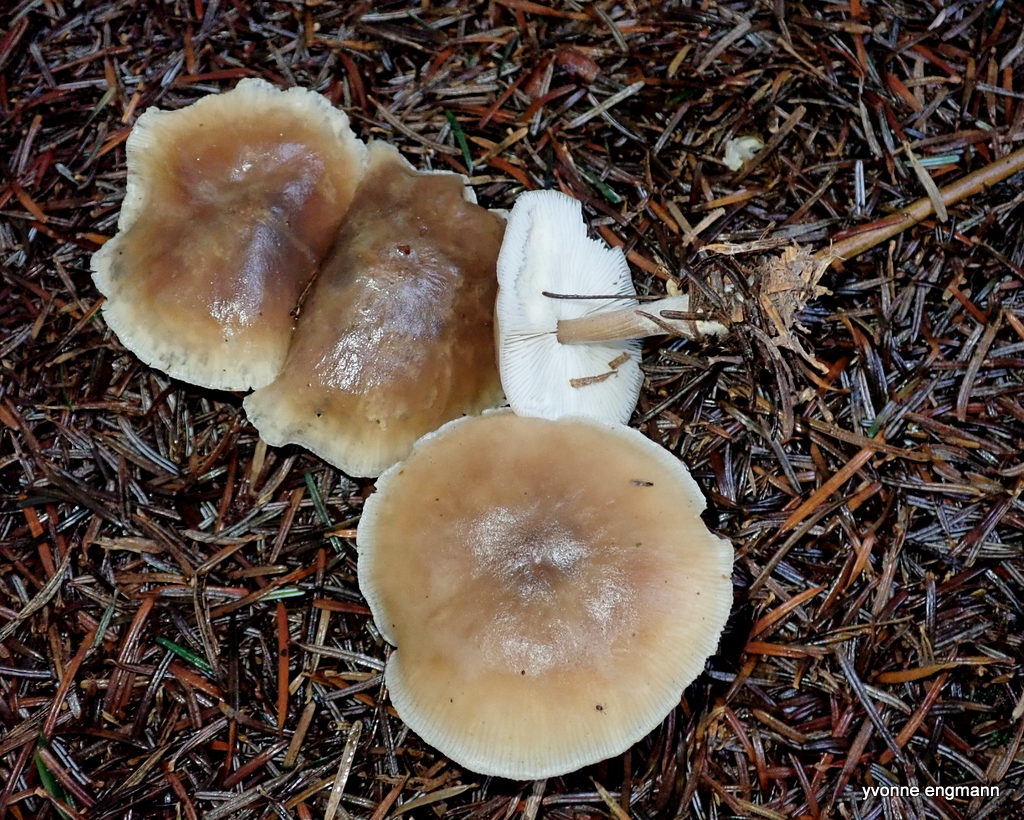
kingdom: Fungi
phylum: Basidiomycota
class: Agaricomycetes
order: Agaricales
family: Omphalotaceae
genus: Rhodocollybia
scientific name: Rhodocollybia asema
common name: horngrå fladhat
